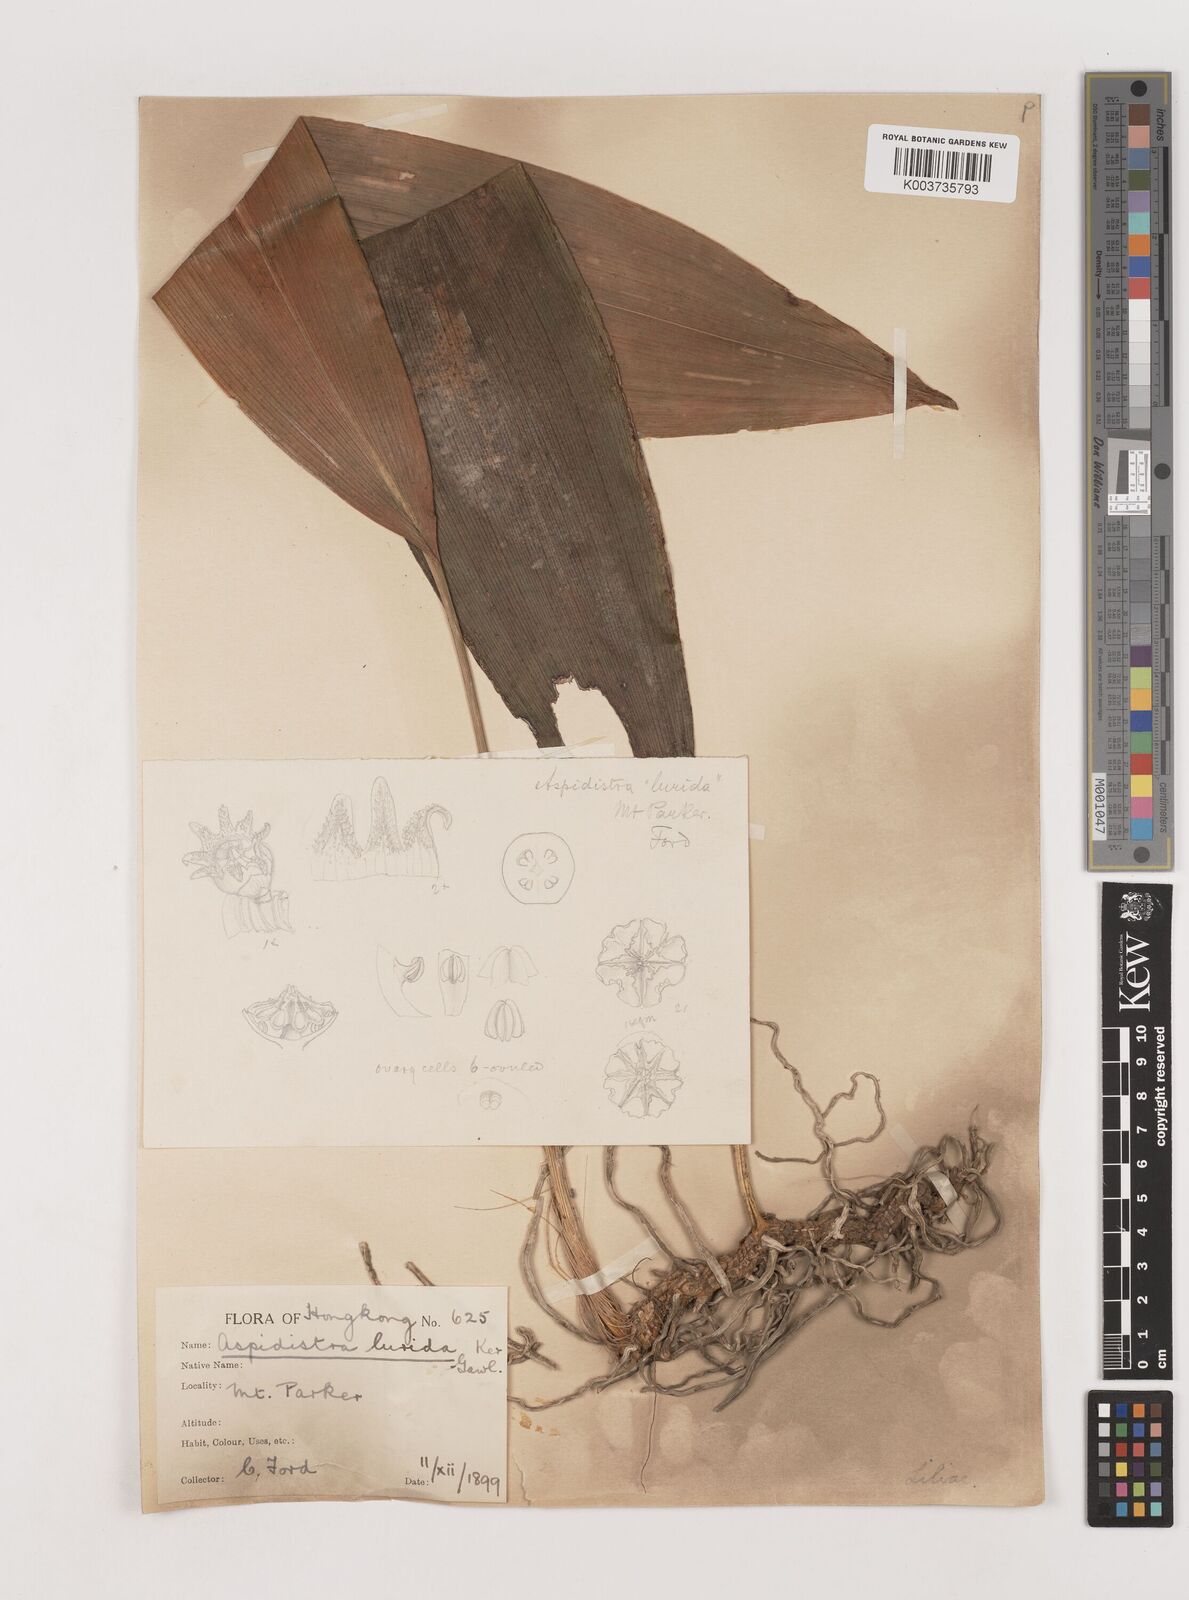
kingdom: Plantae
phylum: Tracheophyta
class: Liliopsida
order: Asparagales
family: Asparagaceae
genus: Aspidistra
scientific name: Aspidistra lurida
